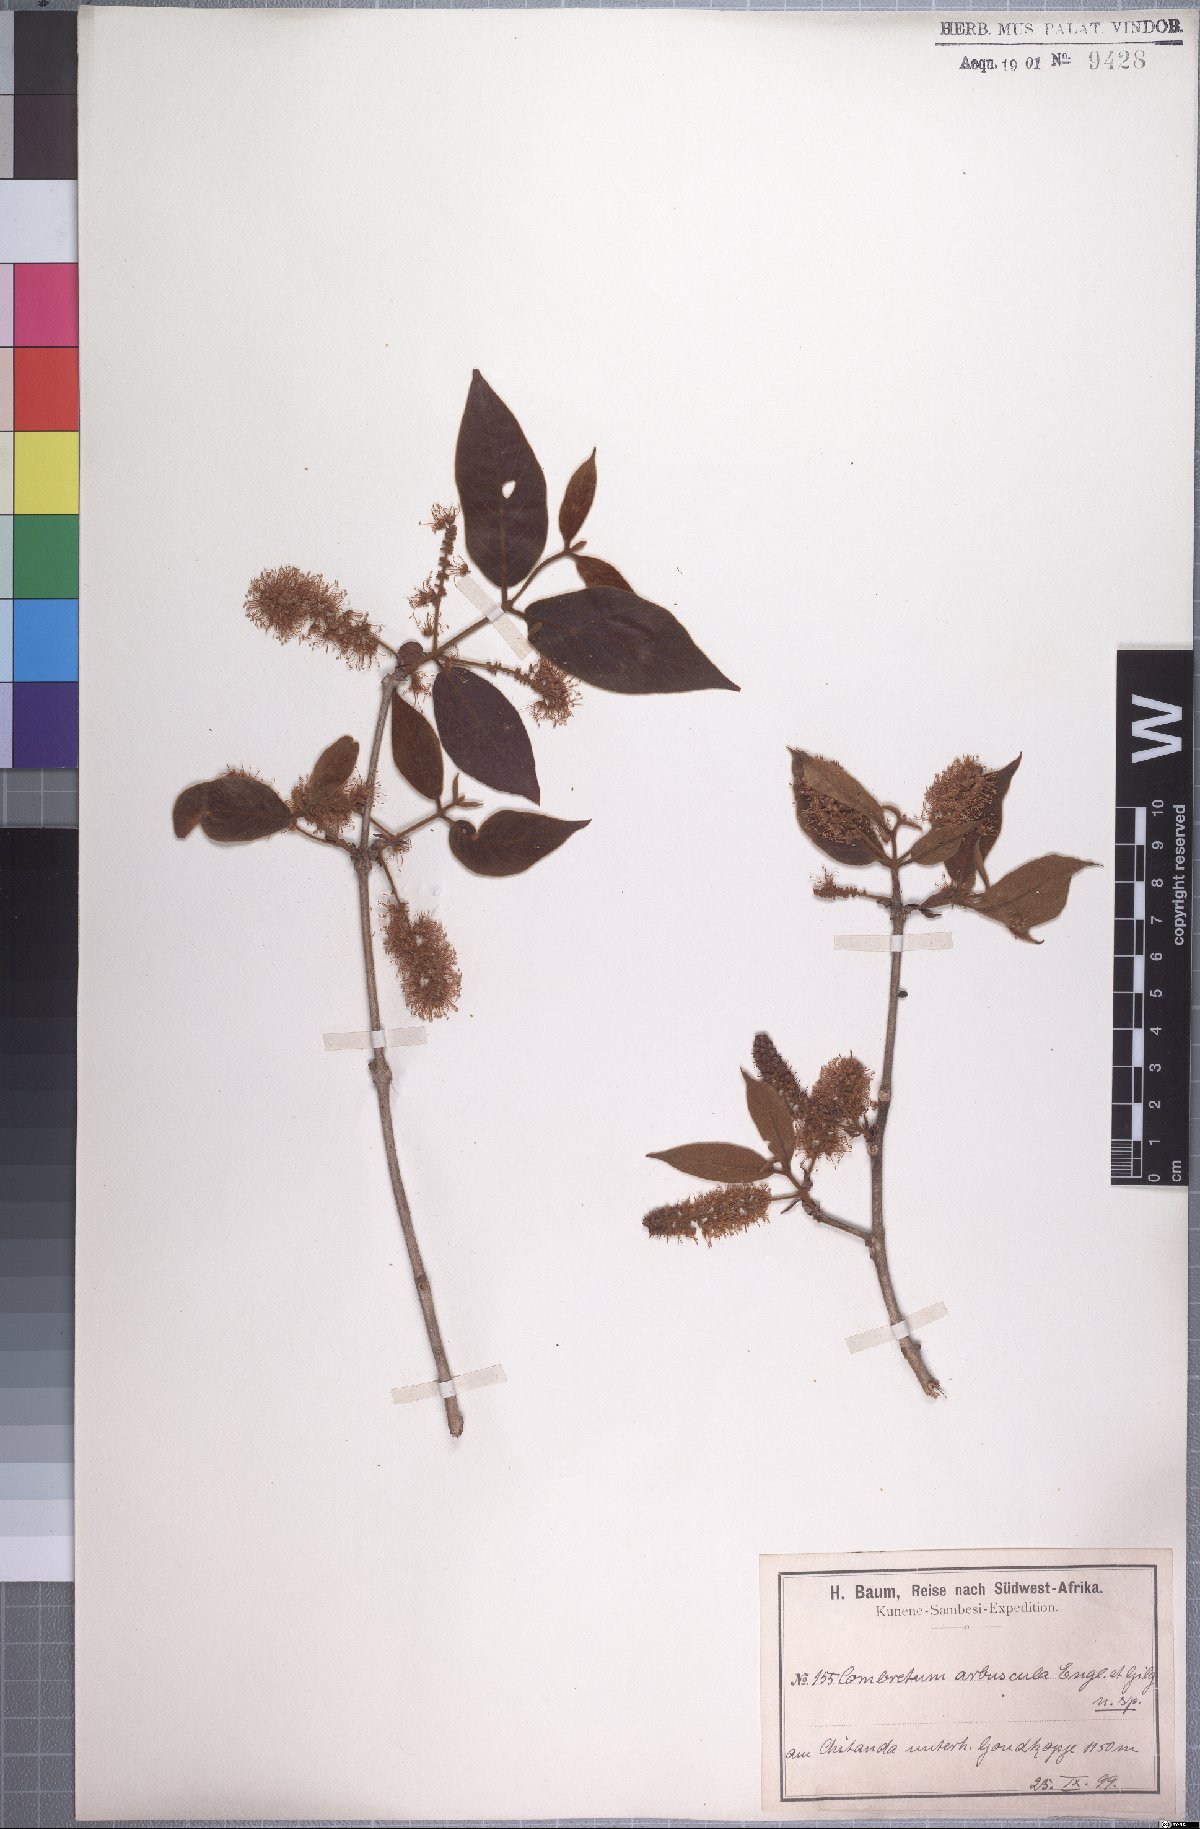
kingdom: Plantae
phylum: Tracheophyta
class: Magnoliopsida
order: Myrtales
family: Combretaceae
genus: Combretum
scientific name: Combretum molle
